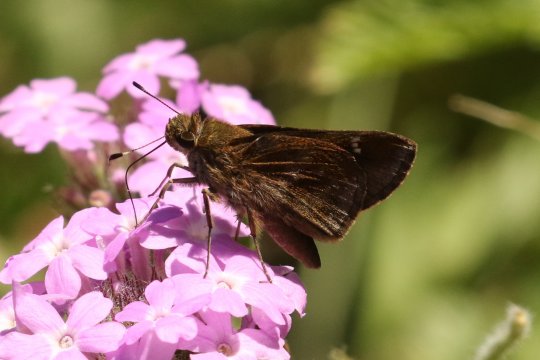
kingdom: Animalia
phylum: Arthropoda
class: Insecta
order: Lepidoptera
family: Hesperiidae
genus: Lerema
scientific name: Lerema accius
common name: Clouded Skipper
